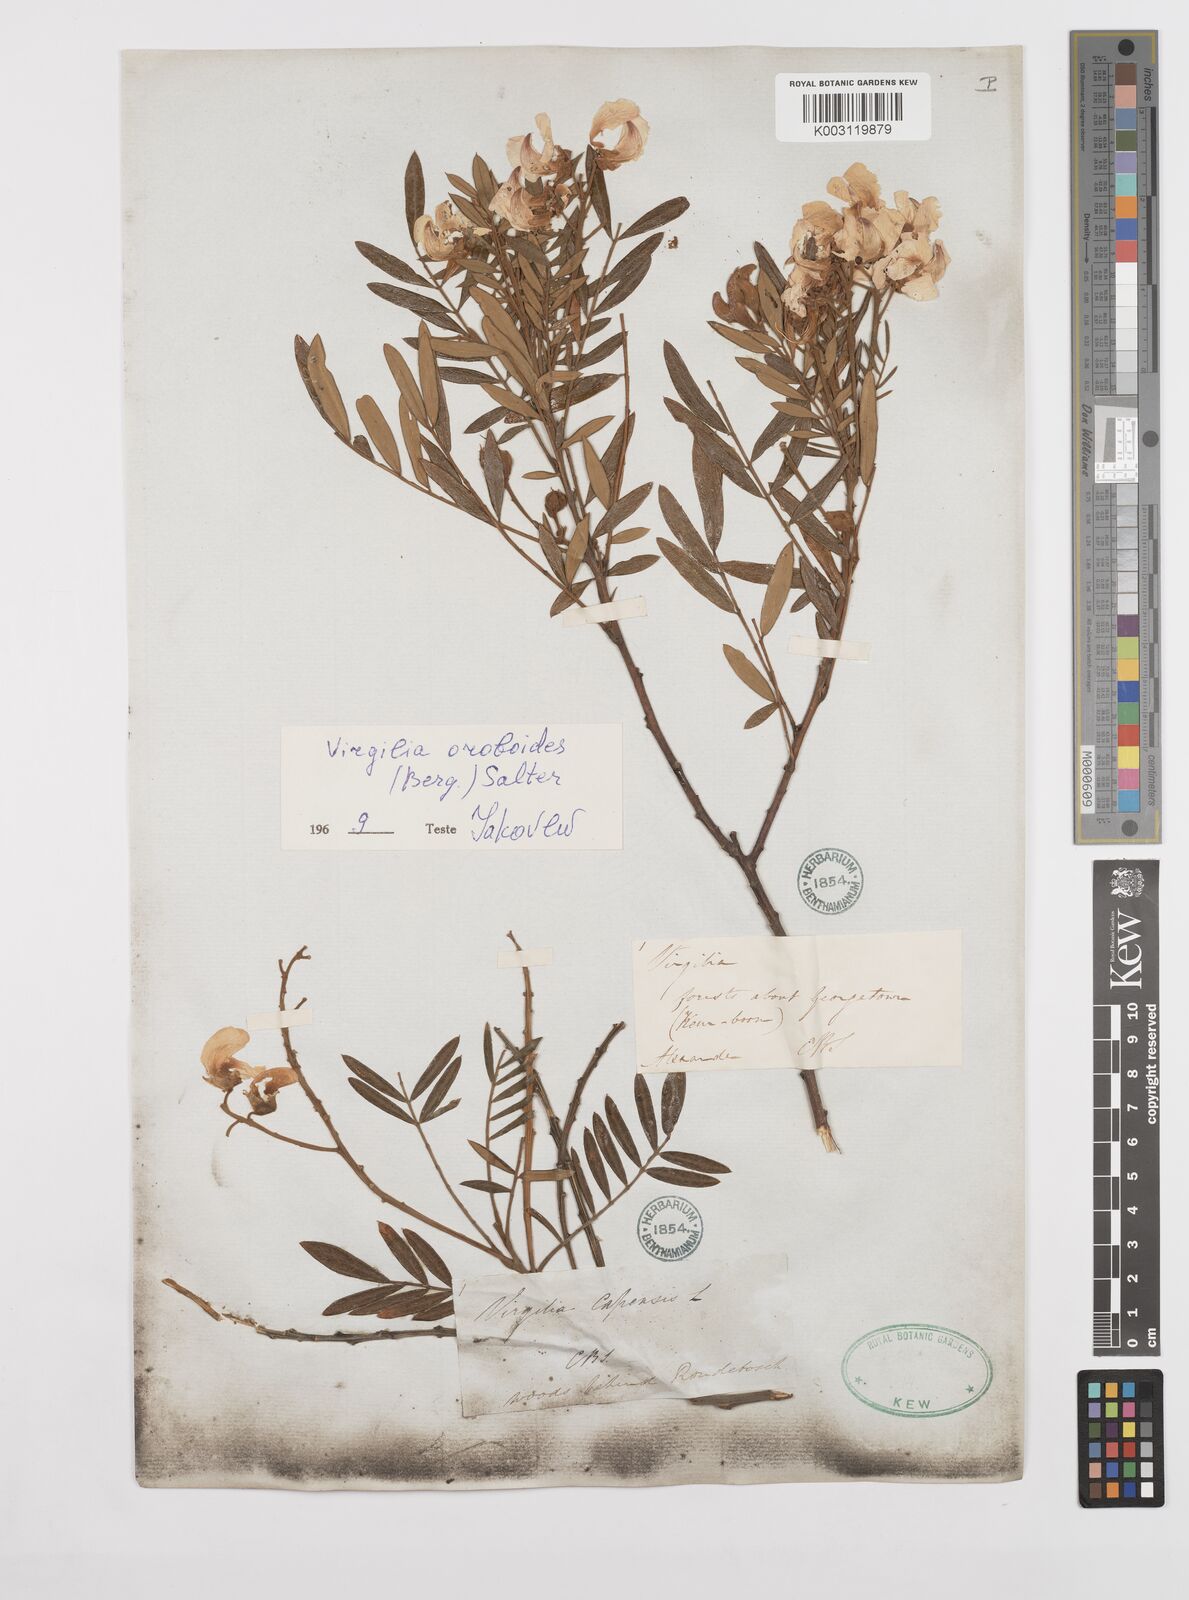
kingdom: Plantae
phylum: Tracheophyta
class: Magnoliopsida
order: Fabales
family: Fabaceae
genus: Virgilia
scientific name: Virgilia oroboides
